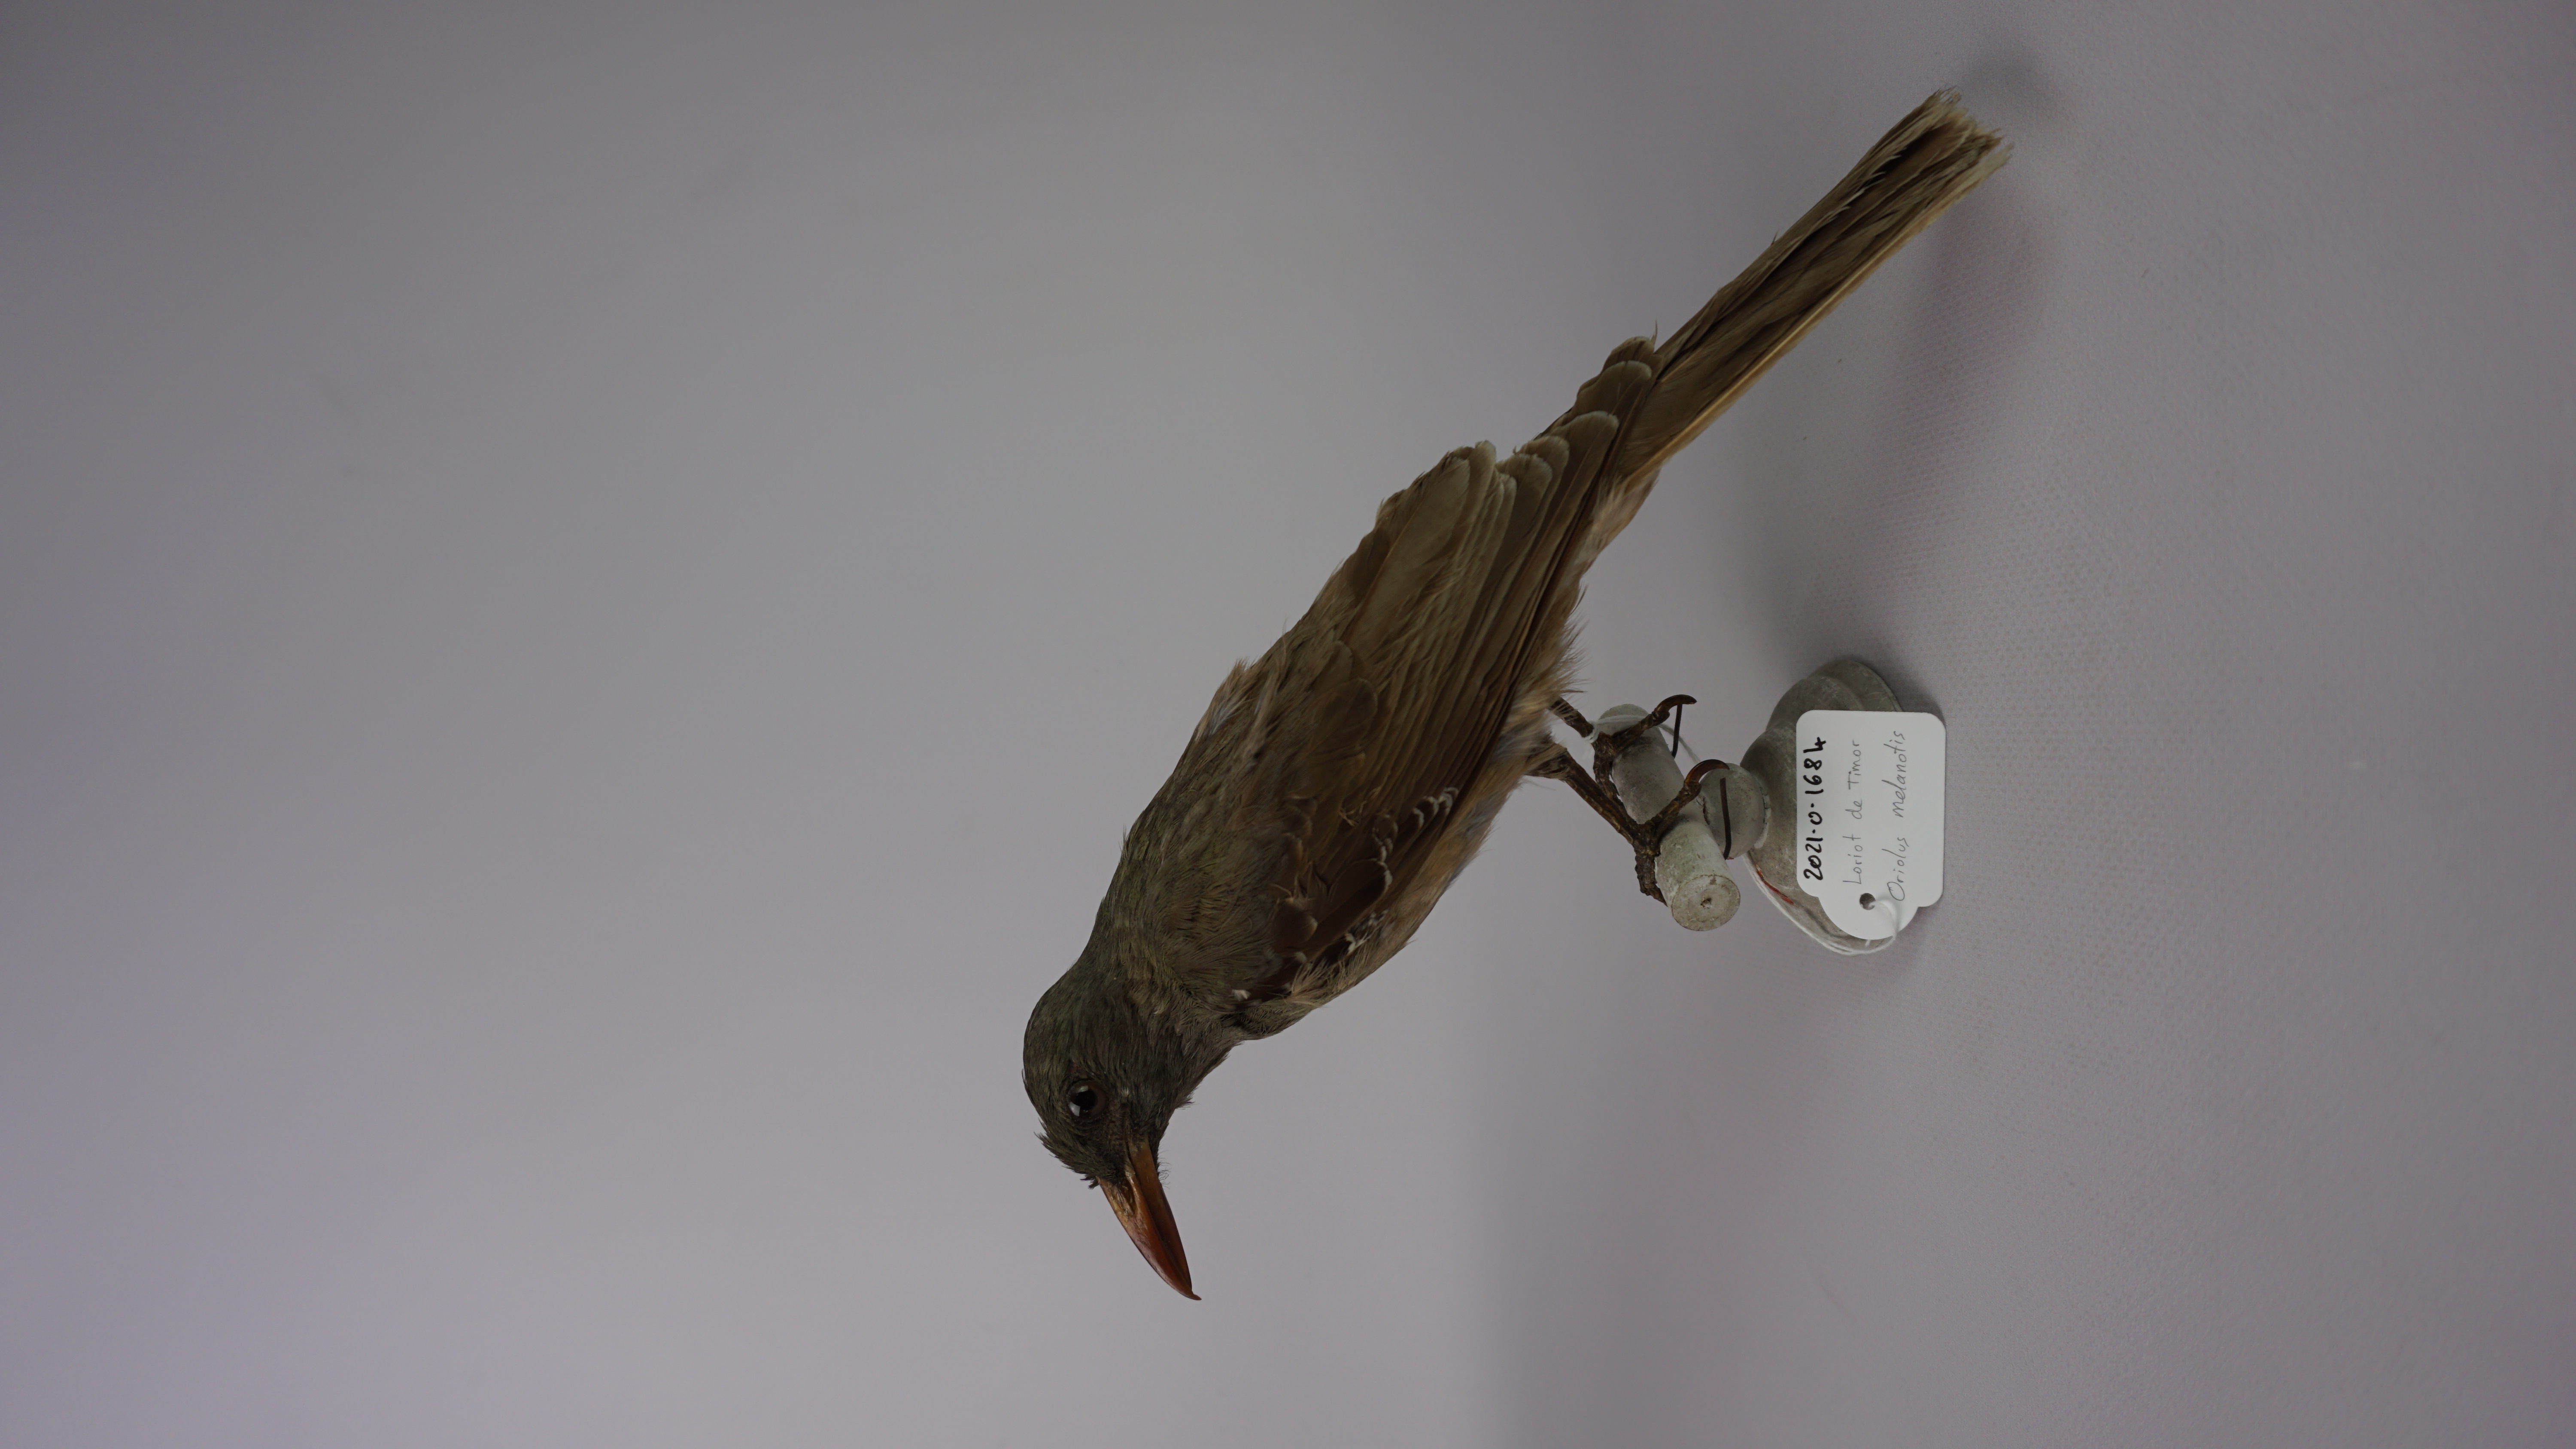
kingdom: Animalia
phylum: Chordata
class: Aves
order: Passeriformes
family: Oriolidae
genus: Oriolus
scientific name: Oriolus melanotis
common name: Olive-brown oriole
